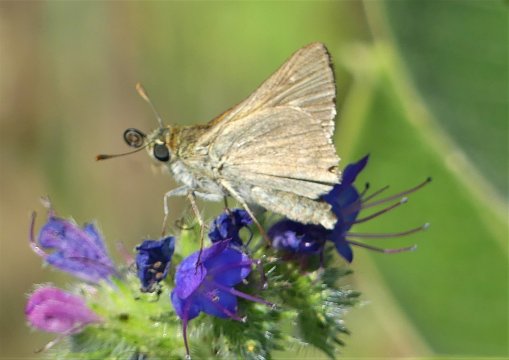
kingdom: Animalia
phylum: Arthropoda
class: Insecta
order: Lepidoptera
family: Hesperiidae
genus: Polites
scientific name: Polites themistocles
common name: Tawny-edged Skipper
